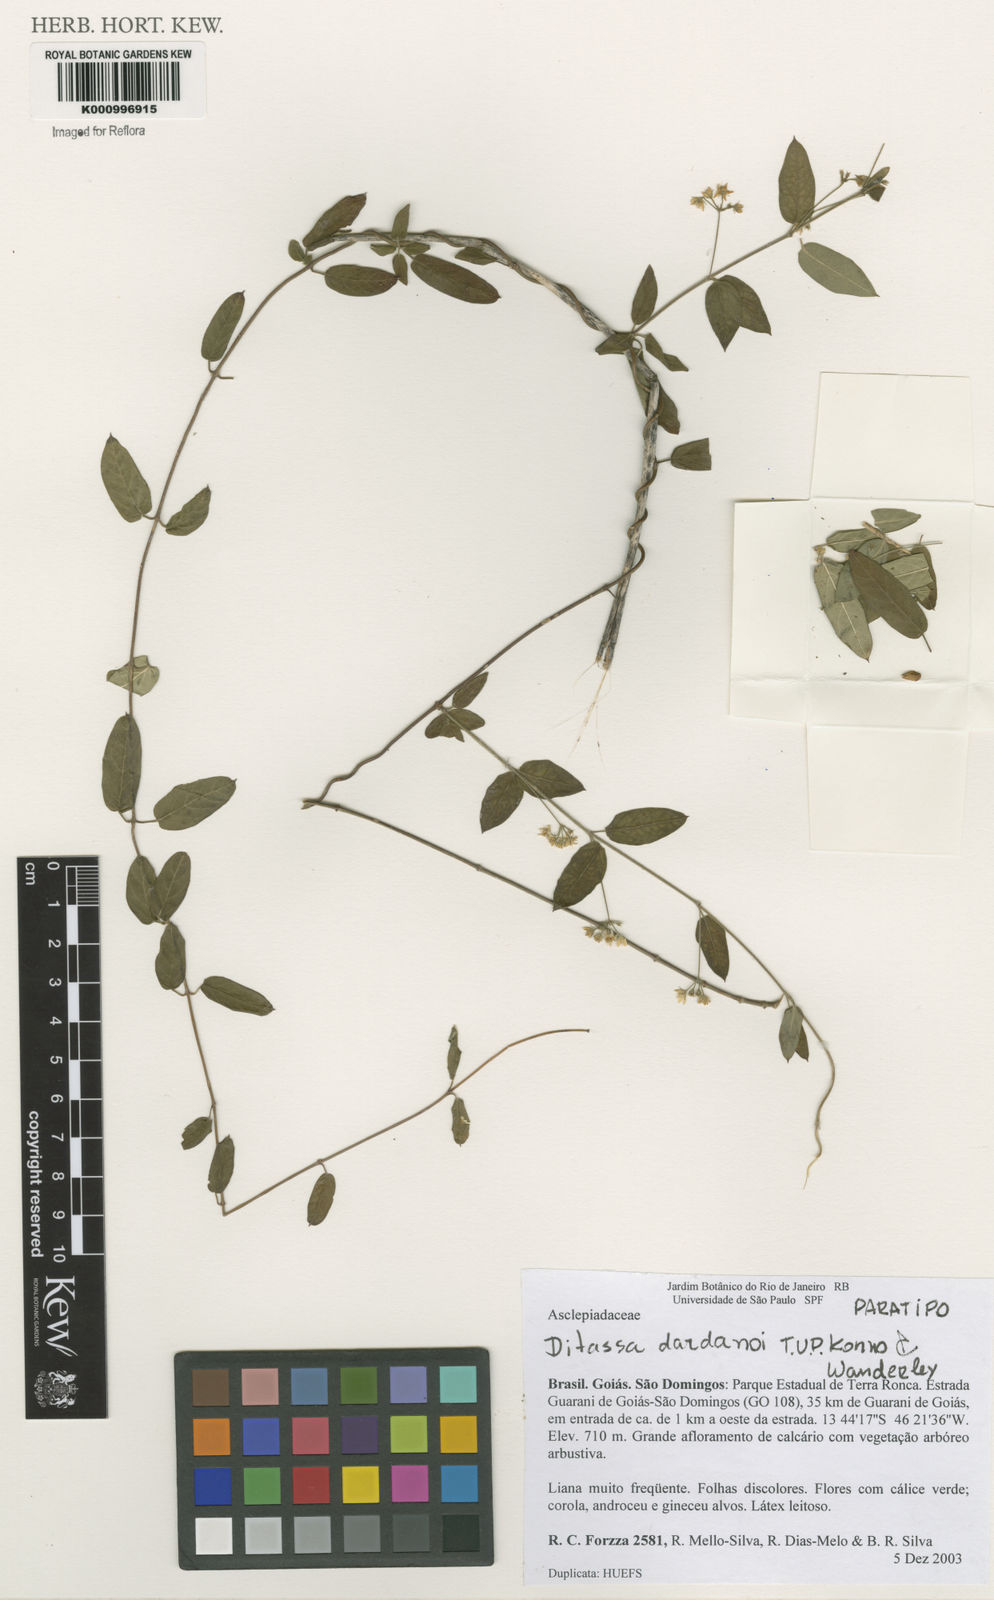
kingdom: Plantae
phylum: Tracheophyta
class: Magnoliopsida
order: Gentianales
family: Apocynaceae
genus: Ditassa
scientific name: Ditassa dardanoi
